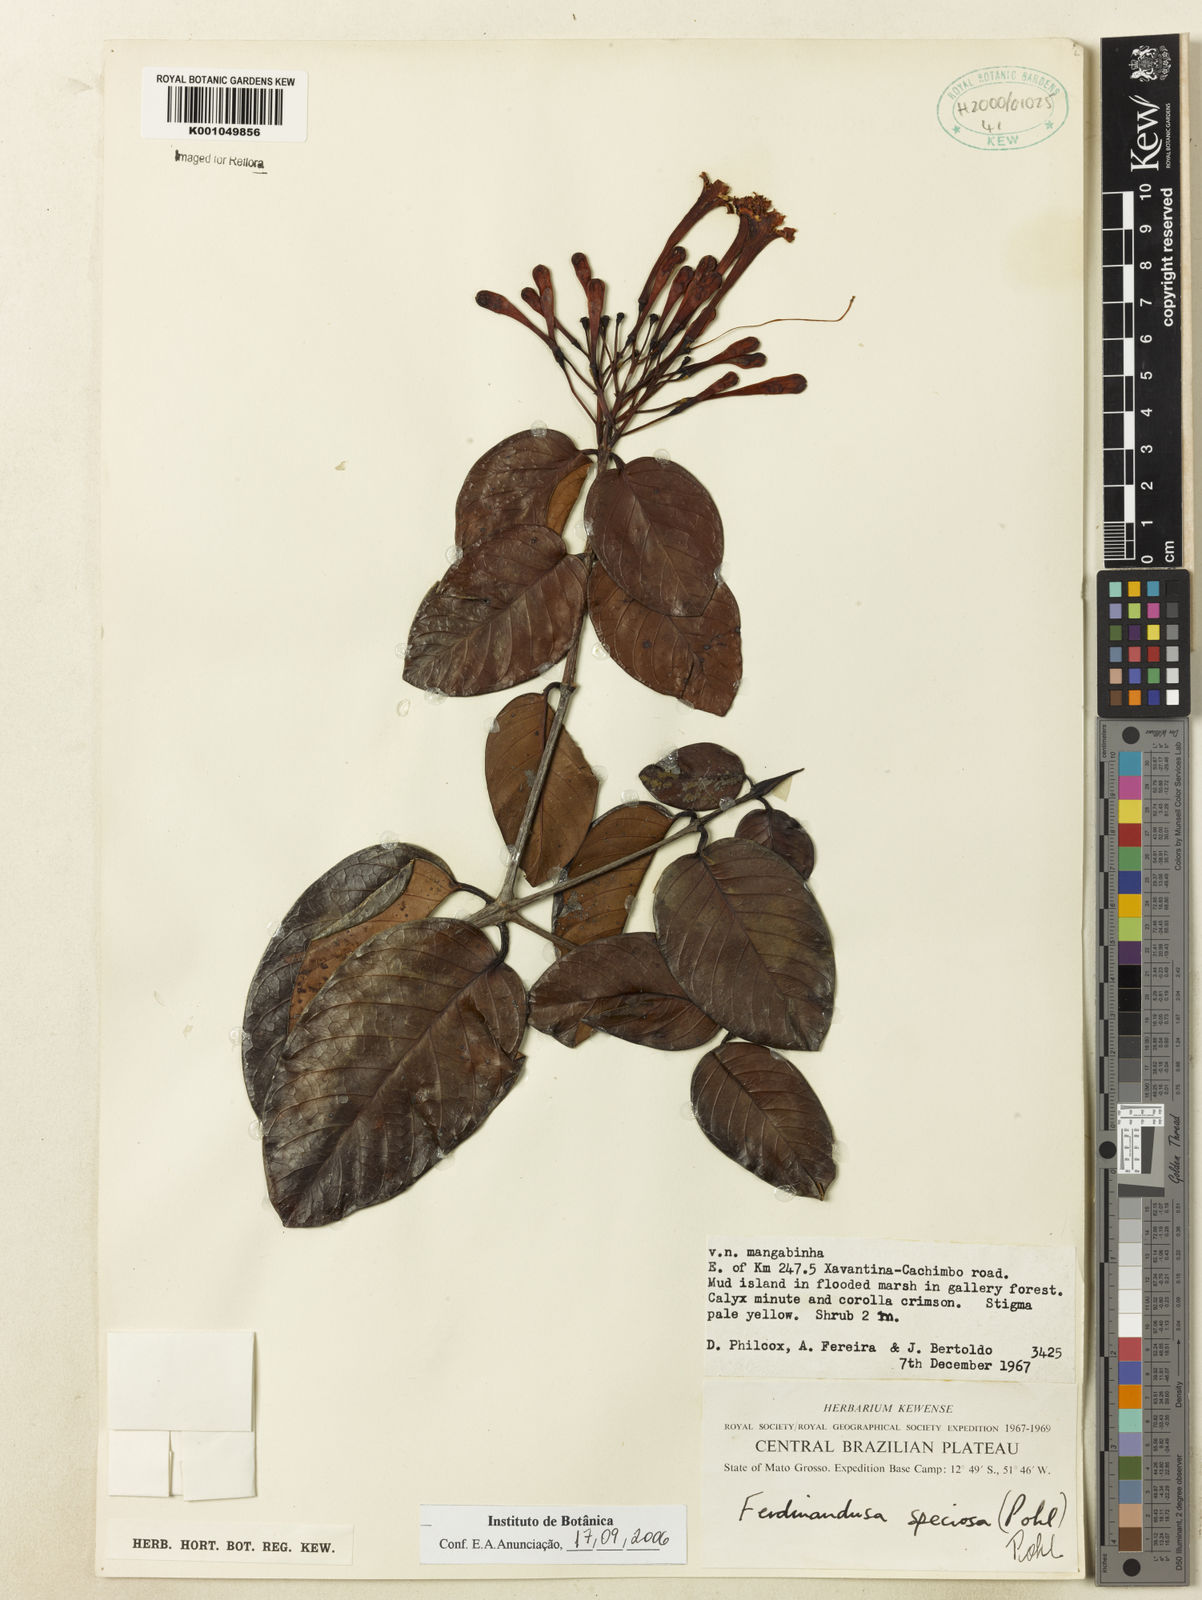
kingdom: Plantae
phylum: Tracheophyta
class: Magnoliopsida
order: Gentianales
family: Rubiaceae
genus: Ferdinandusa
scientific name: Ferdinandusa speciosa
